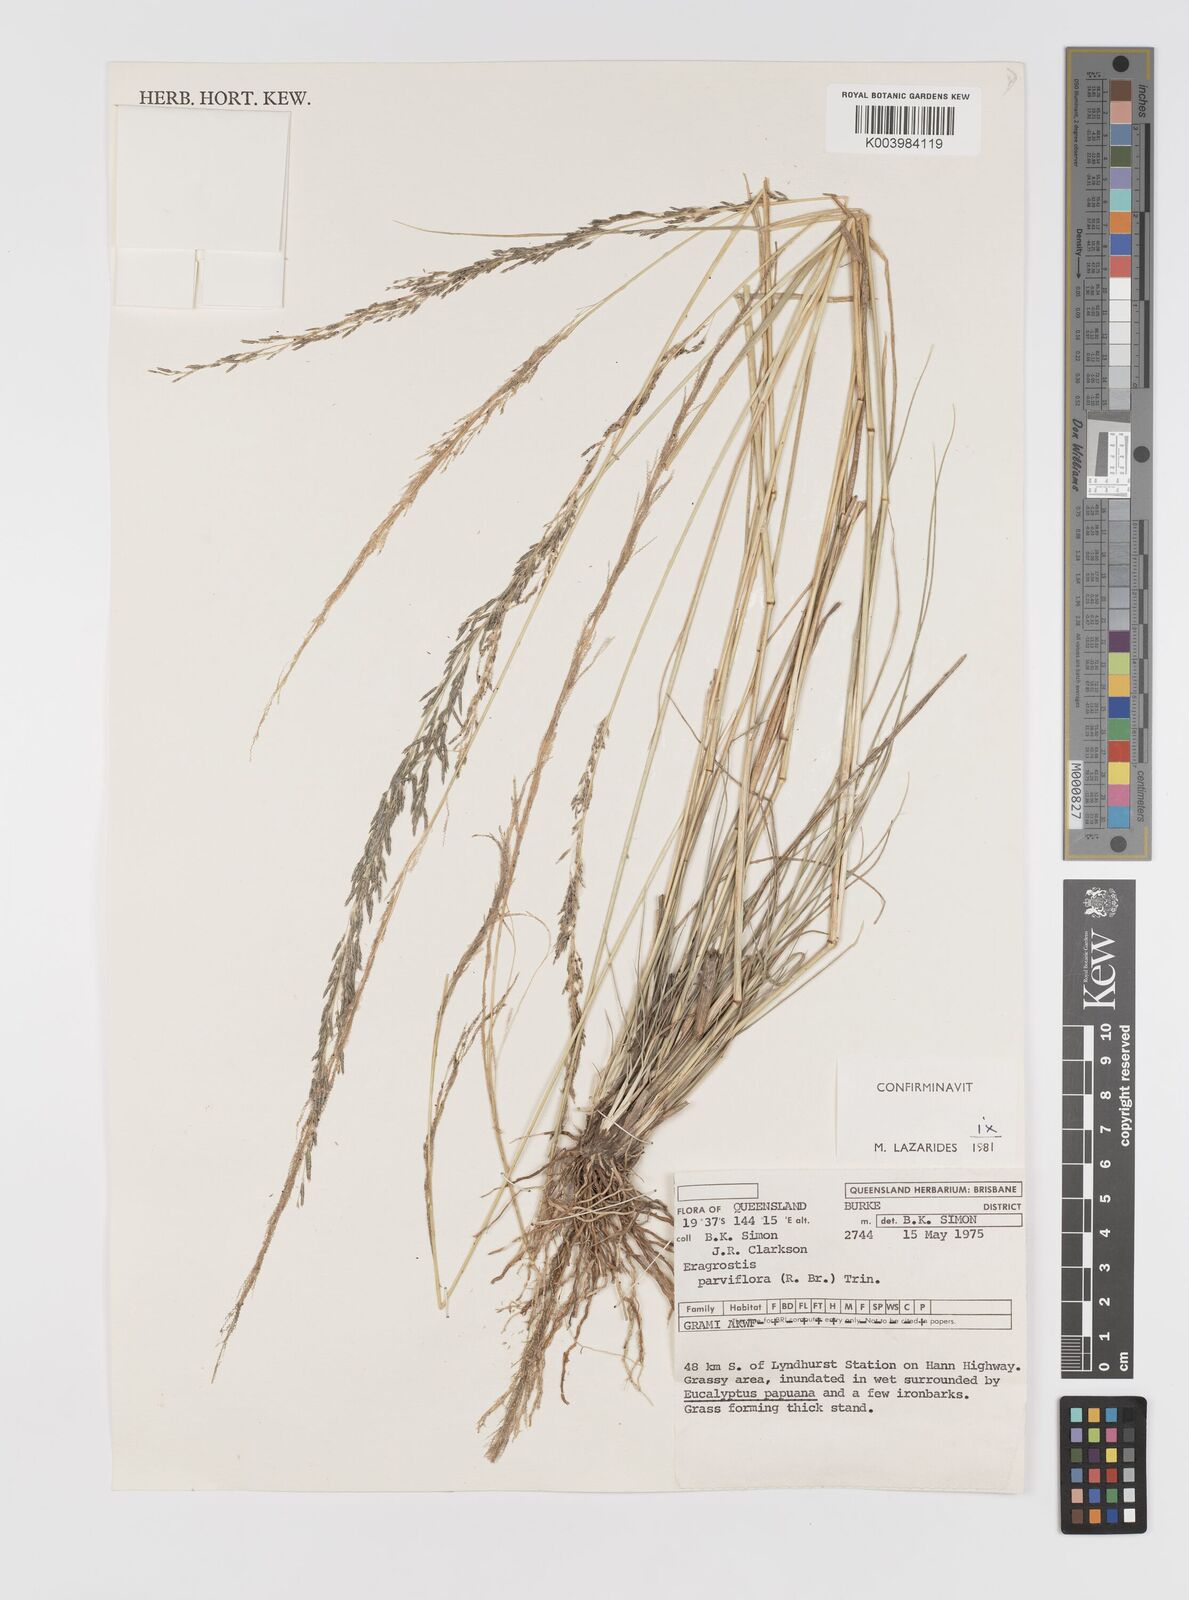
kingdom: Plantae
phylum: Tracheophyta
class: Liliopsida
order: Poales
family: Poaceae
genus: Eragrostis
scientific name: Eragrostis parviflora
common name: Weeping love-grass
